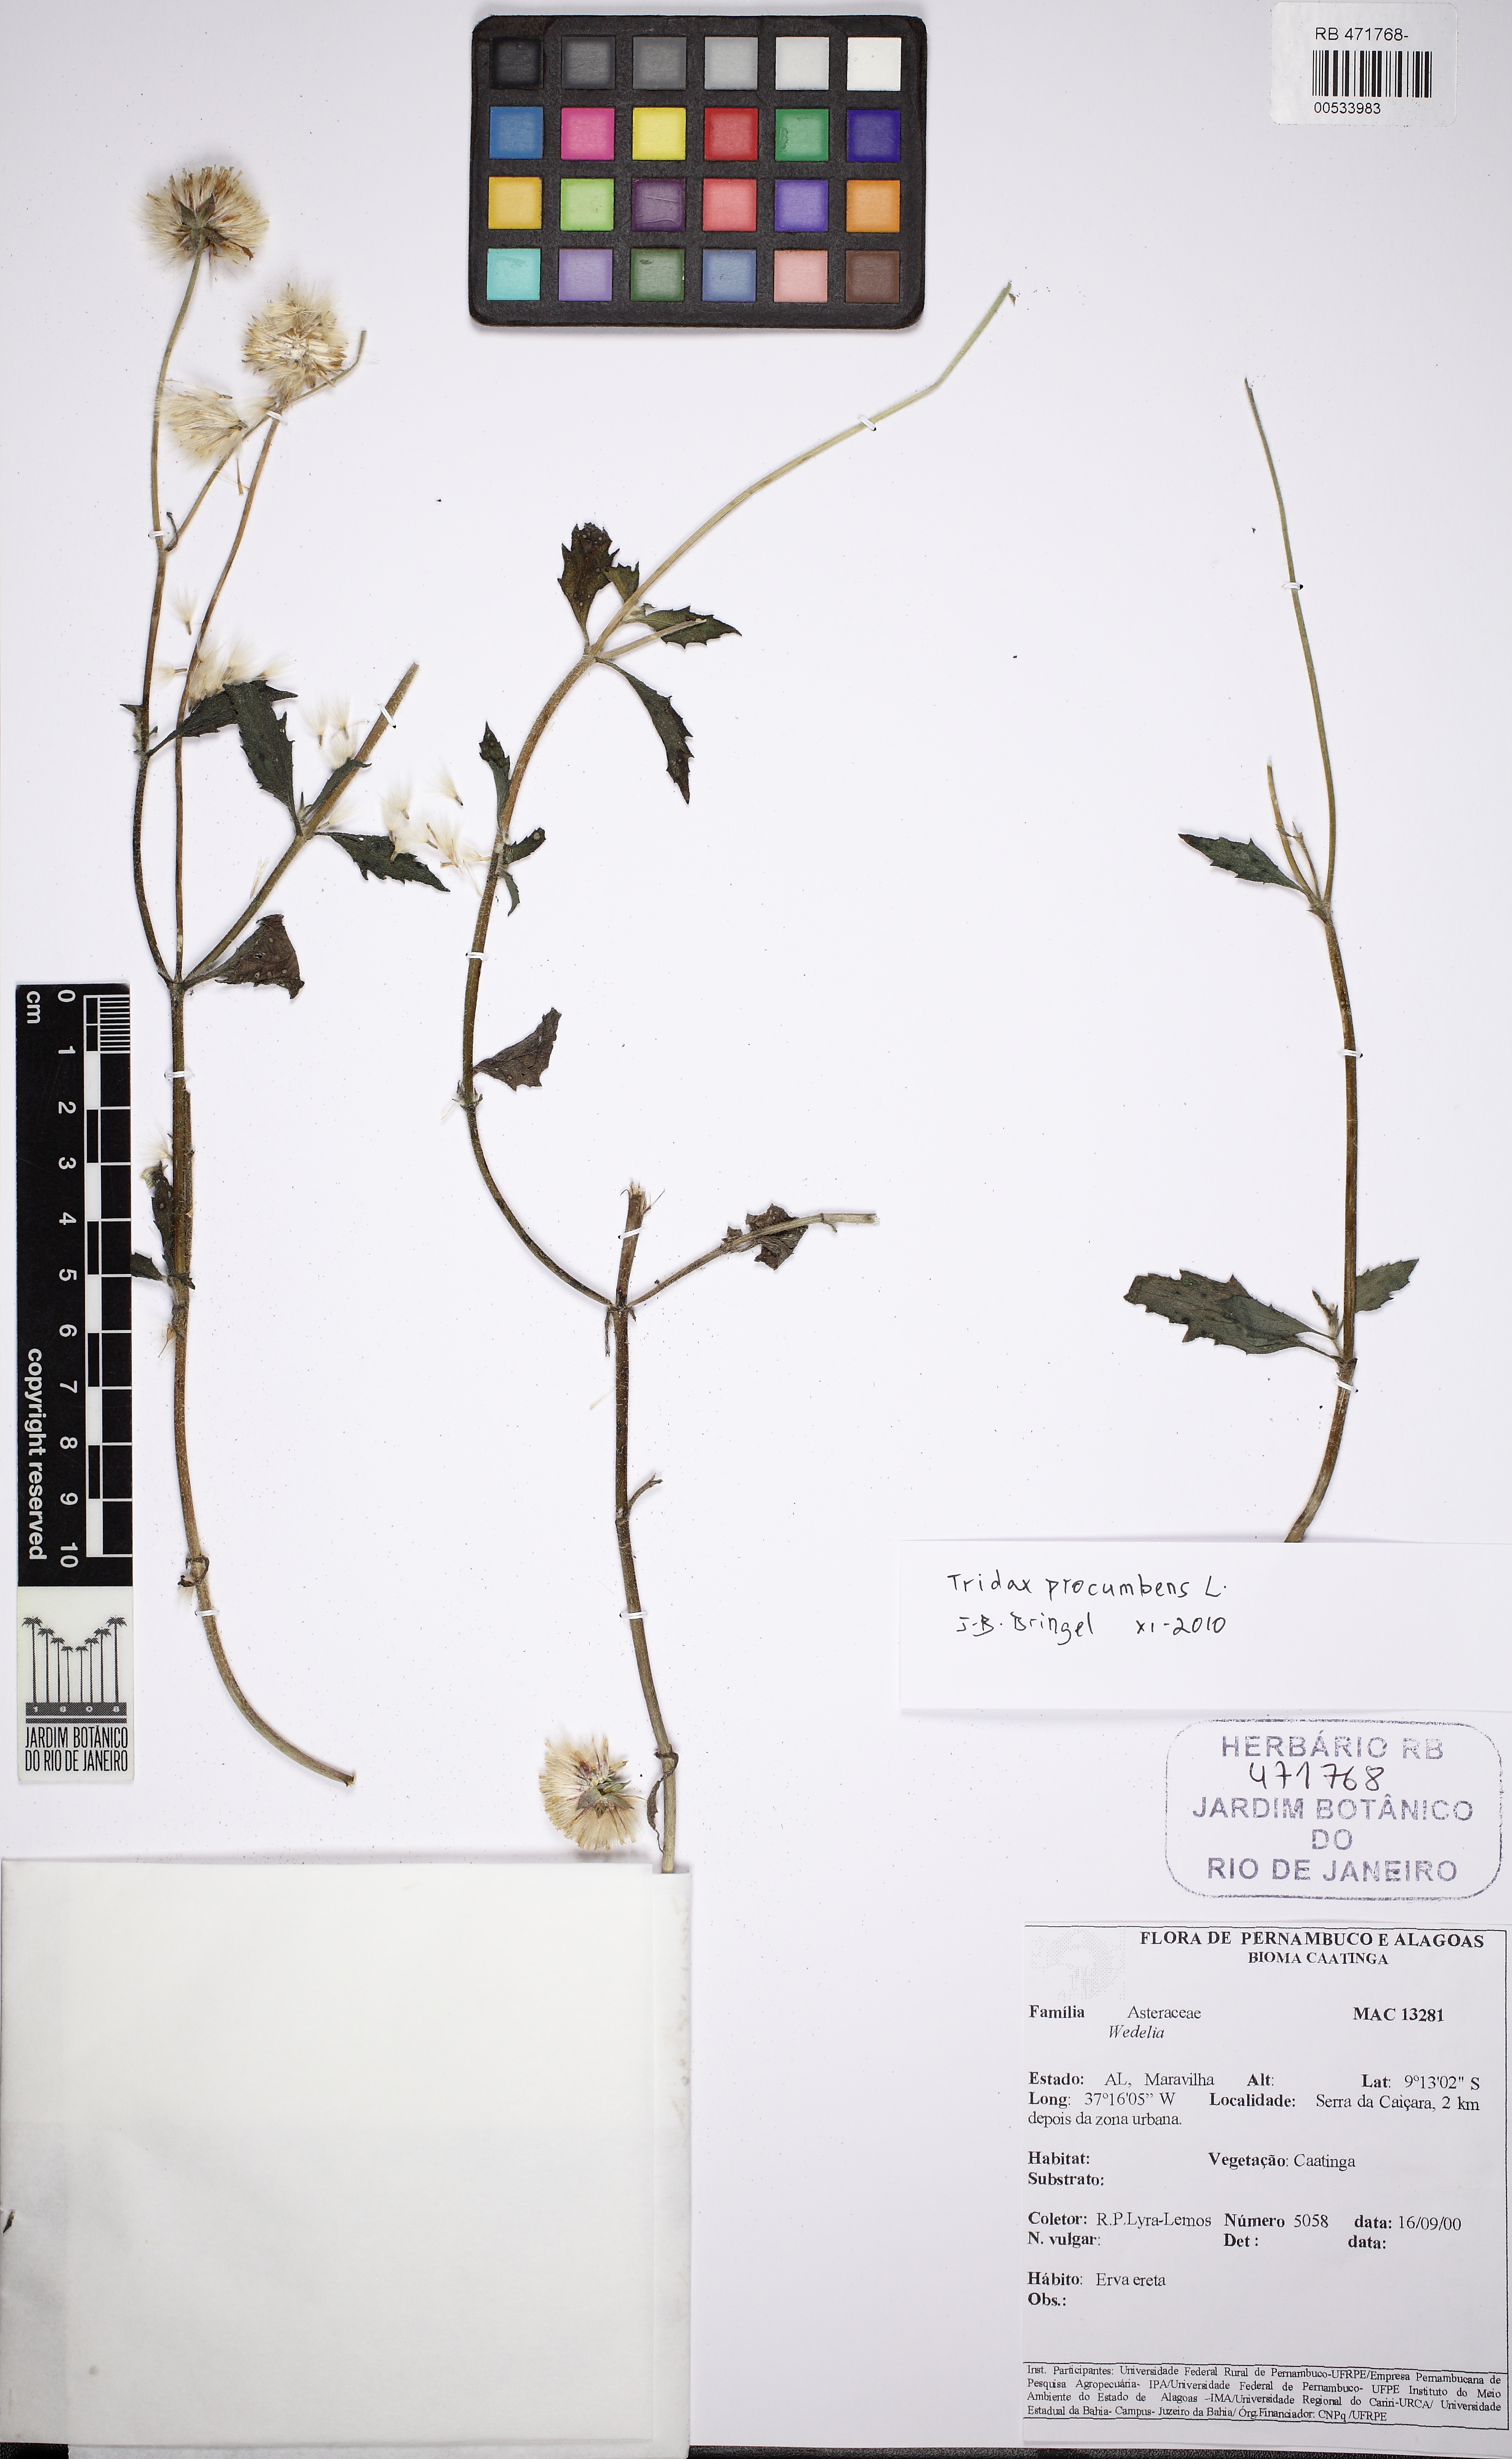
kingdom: Plantae
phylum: Tracheophyta
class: Magnoliopsida
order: Asterales
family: Asteraceae
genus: Tridax
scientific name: Tridax procumbens
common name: Coatbuttons
